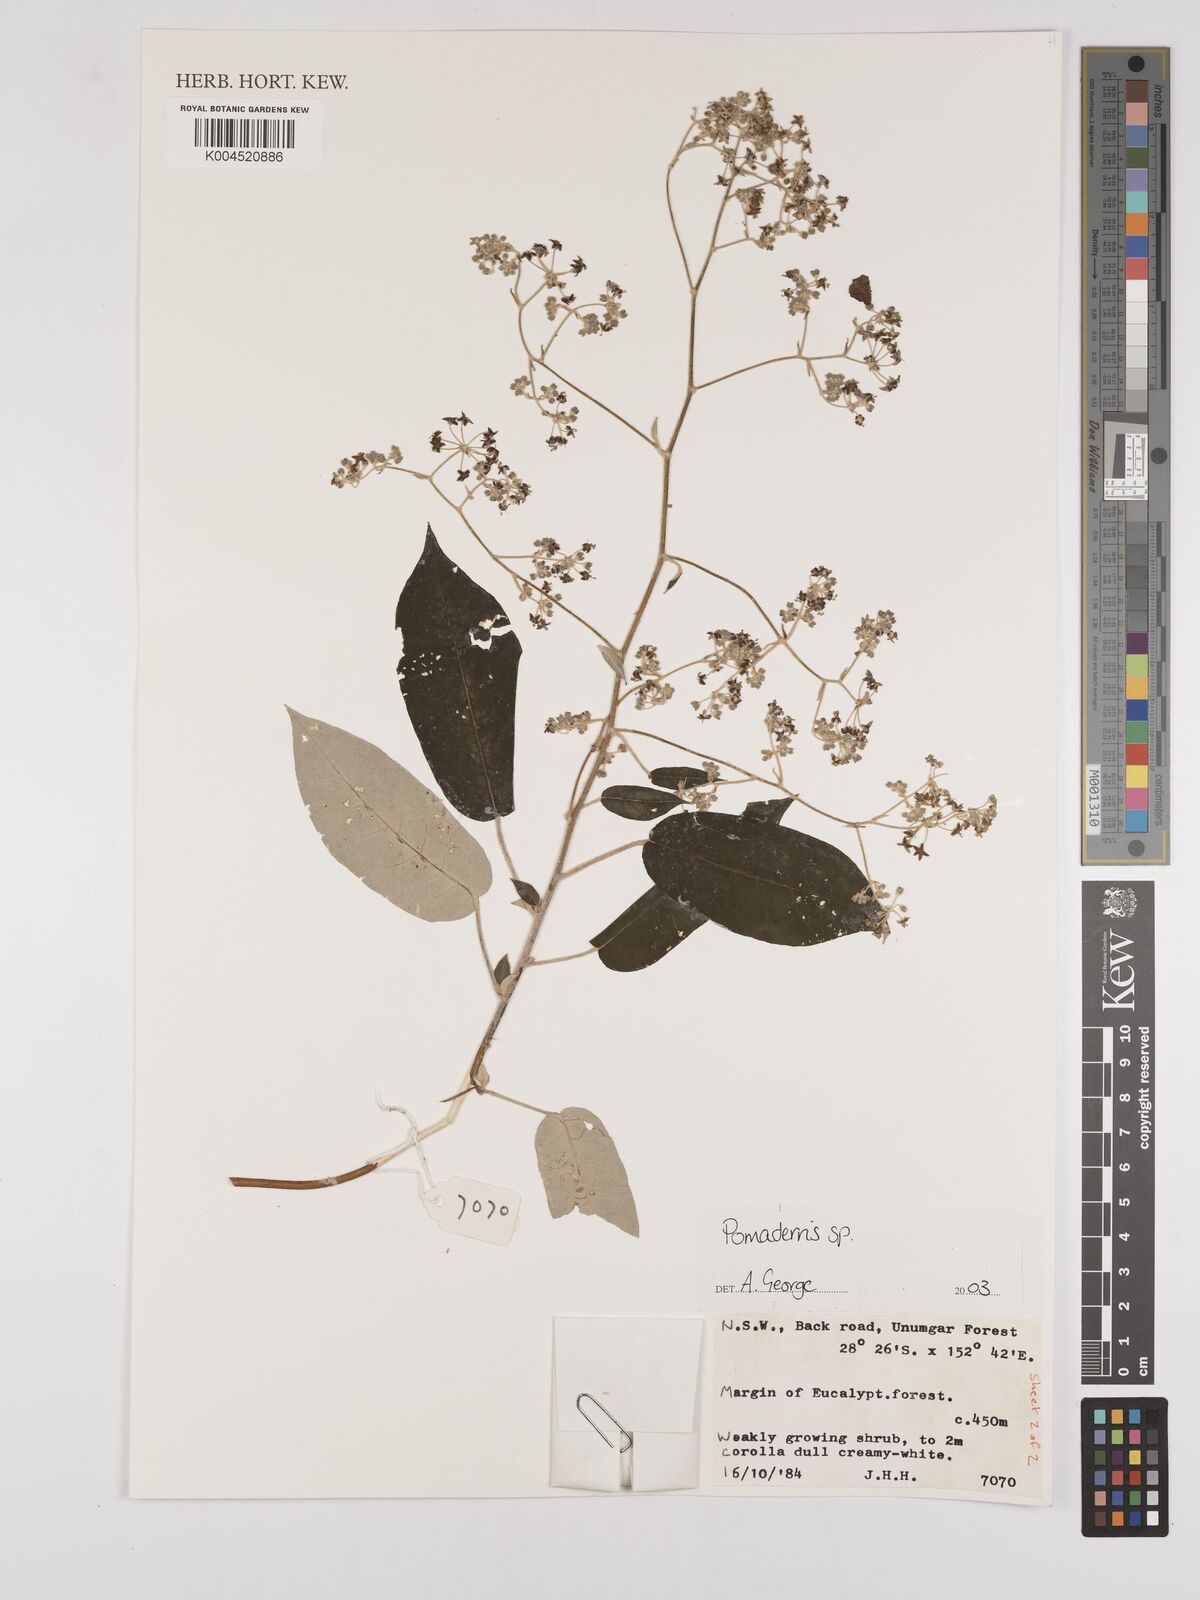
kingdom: Plantae
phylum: Tracheophyta
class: Magnoliopsida
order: Rosales
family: Rhamnaceae
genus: Pomaderris
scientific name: Pomaderris
